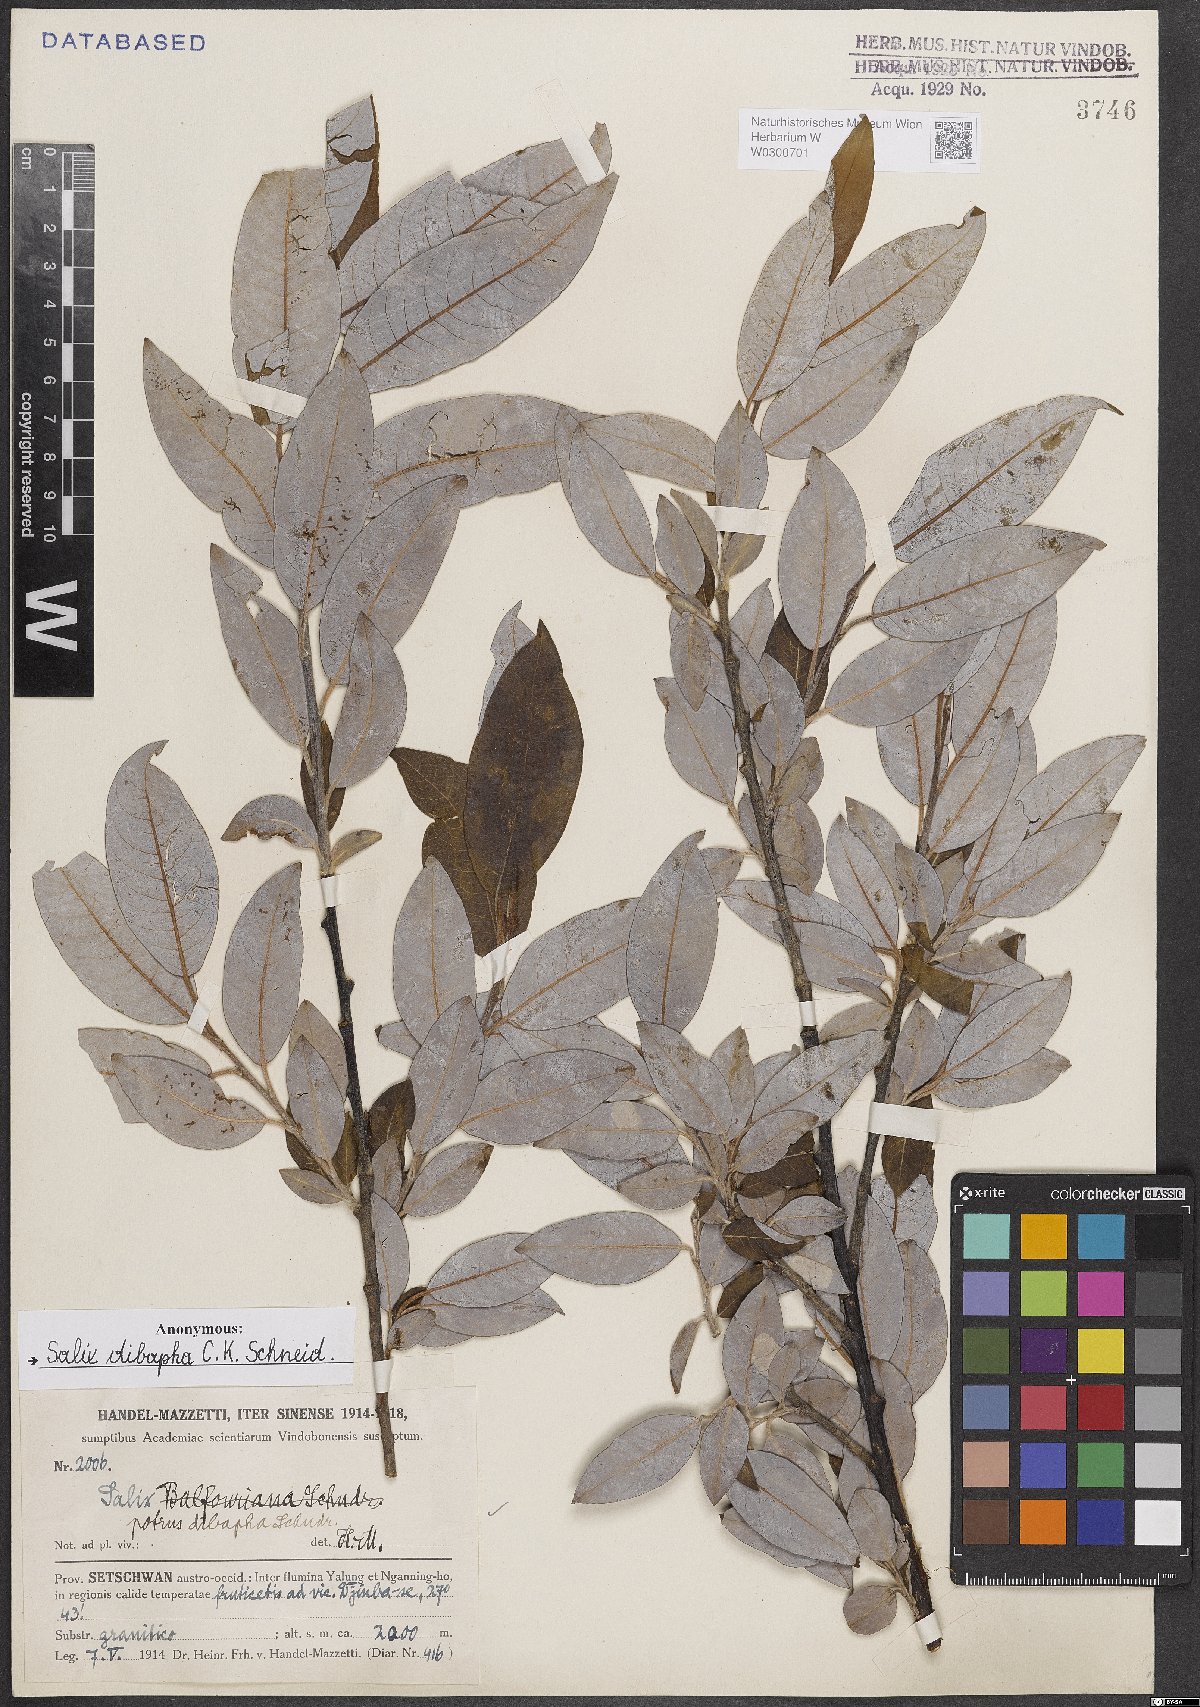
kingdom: Plantae
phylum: Tracheophyta
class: Magnoliopsida
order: Malpighiales
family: Salicaceae
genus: Salix
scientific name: Salix dibapha
